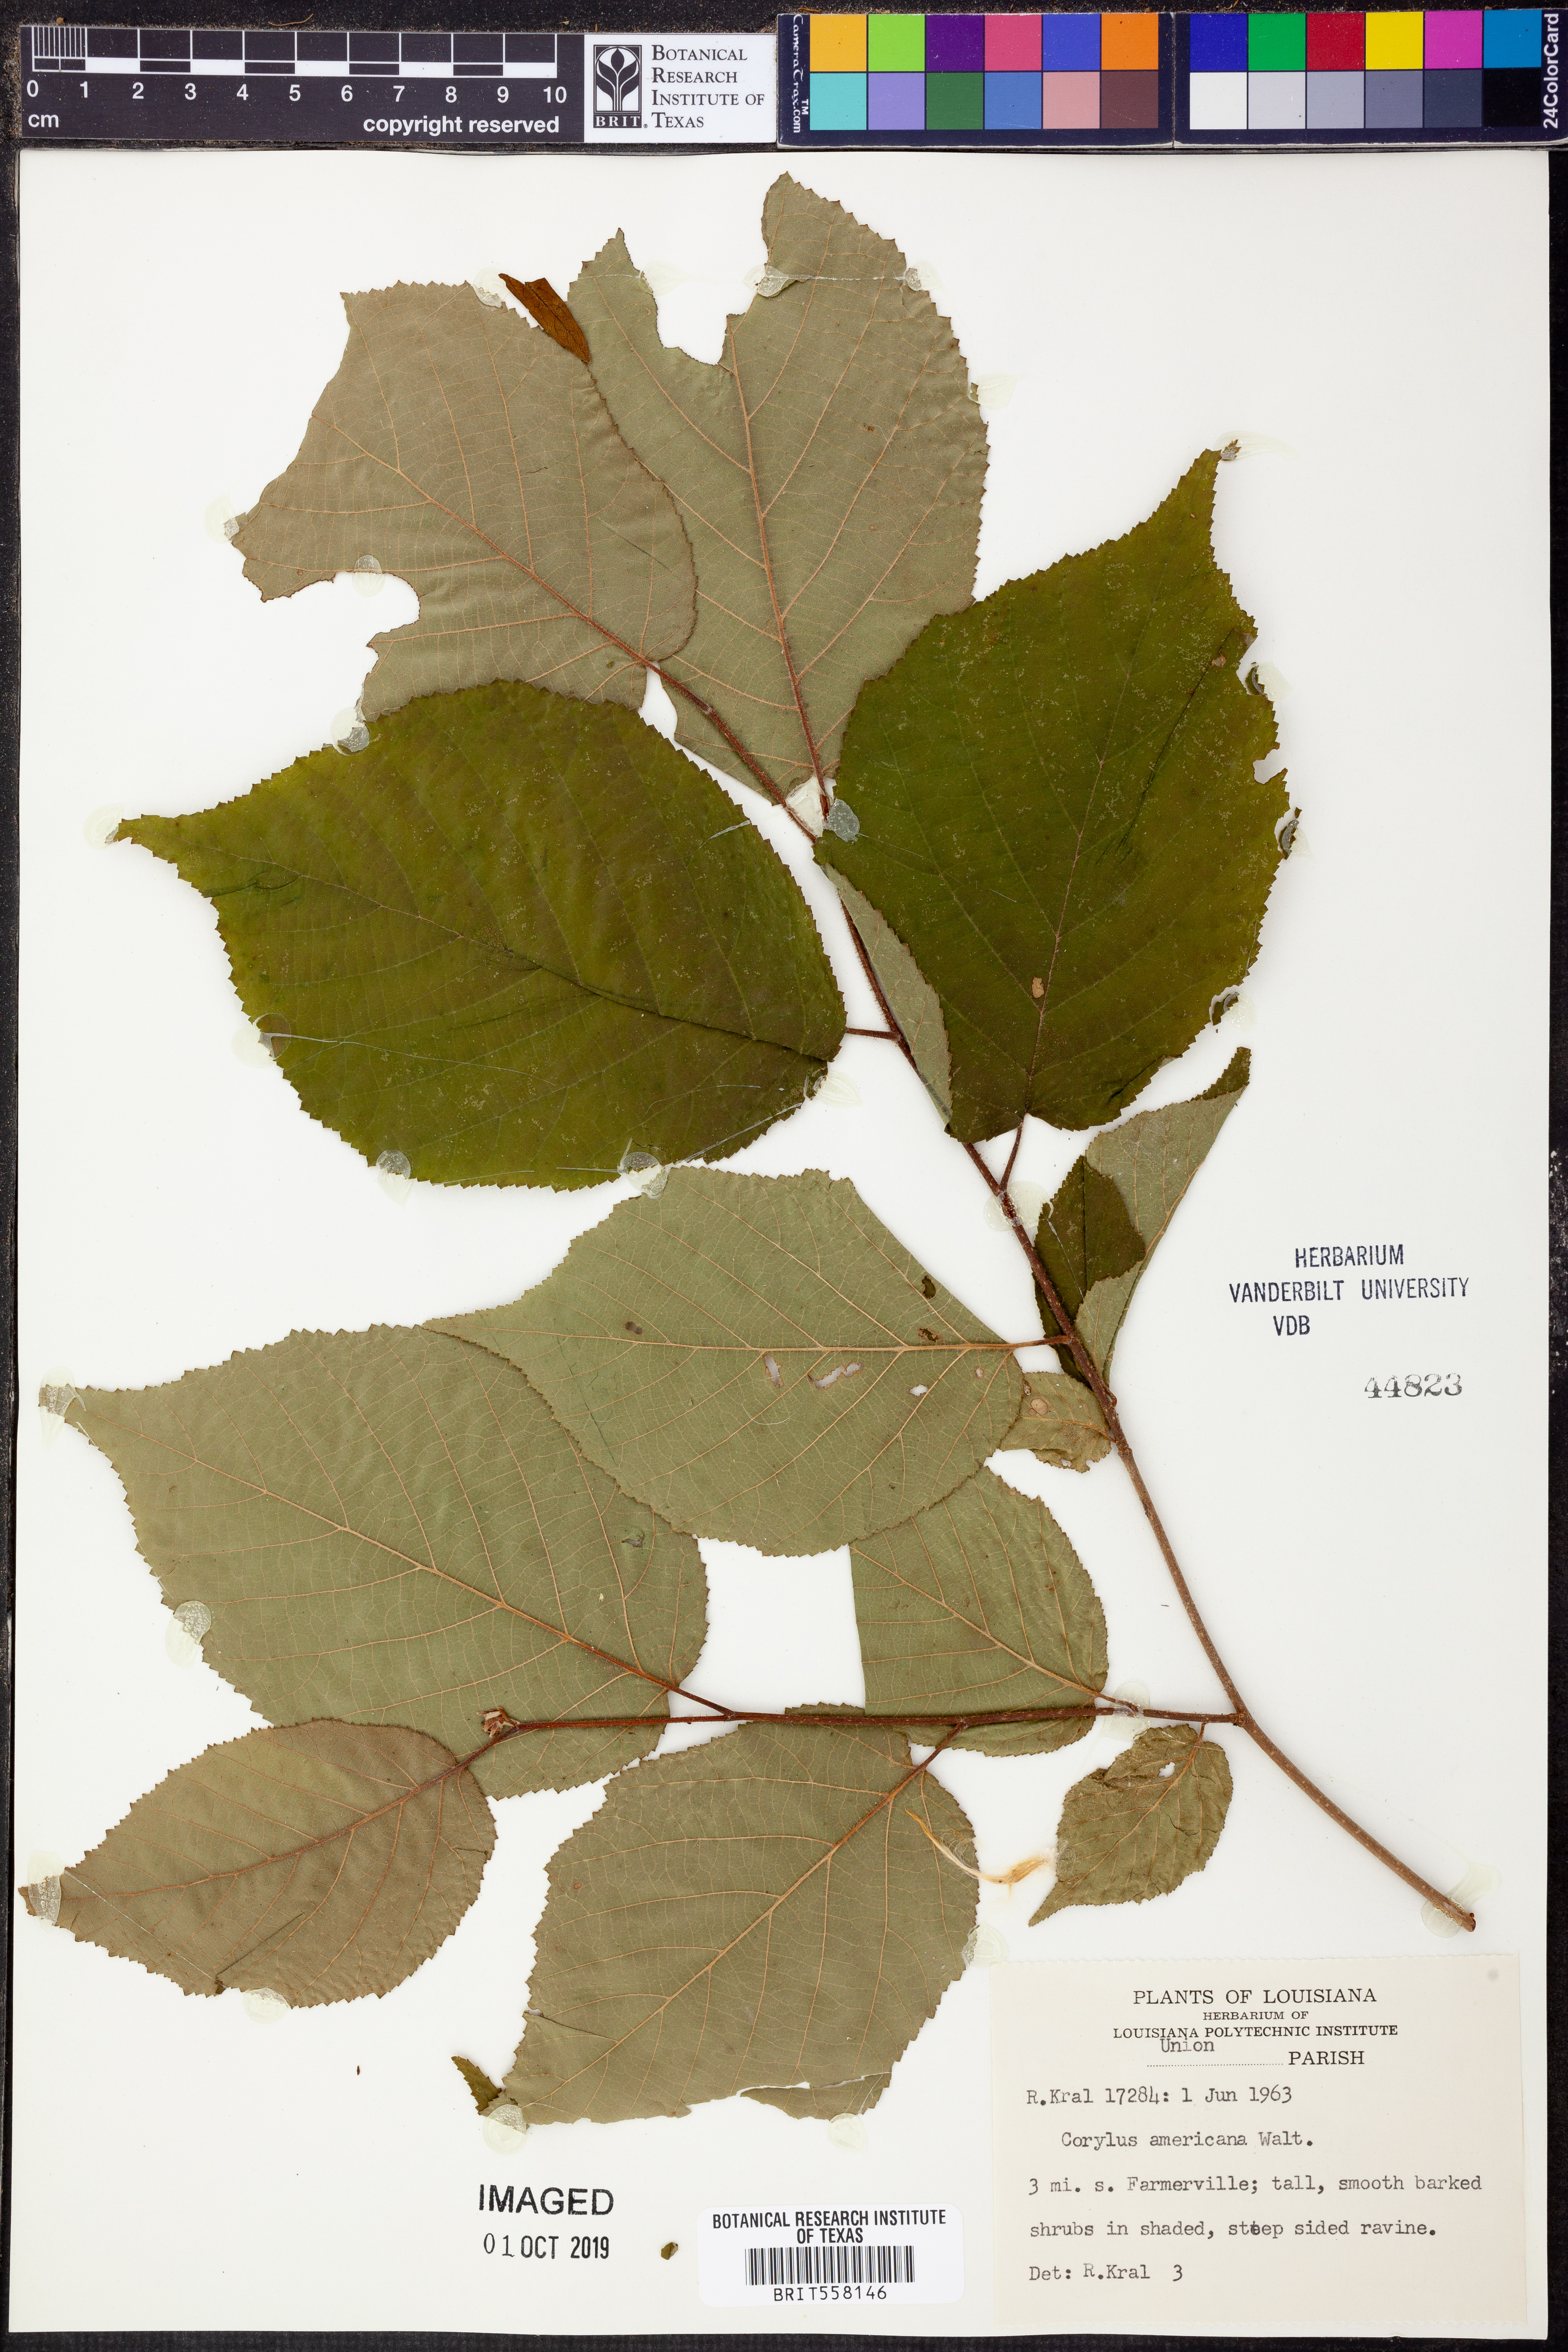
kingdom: Plantae
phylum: Tracheophyta
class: Magnoliopsida
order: Fagales
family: Betulaceae
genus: Corylus
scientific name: Corylus americana
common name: American hazel
